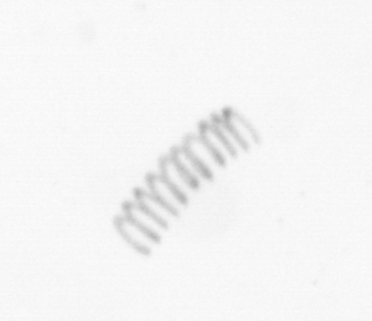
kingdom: Chromista
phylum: Ochrophyta
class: Bacillariophyceae
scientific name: Bacillariophyceae
